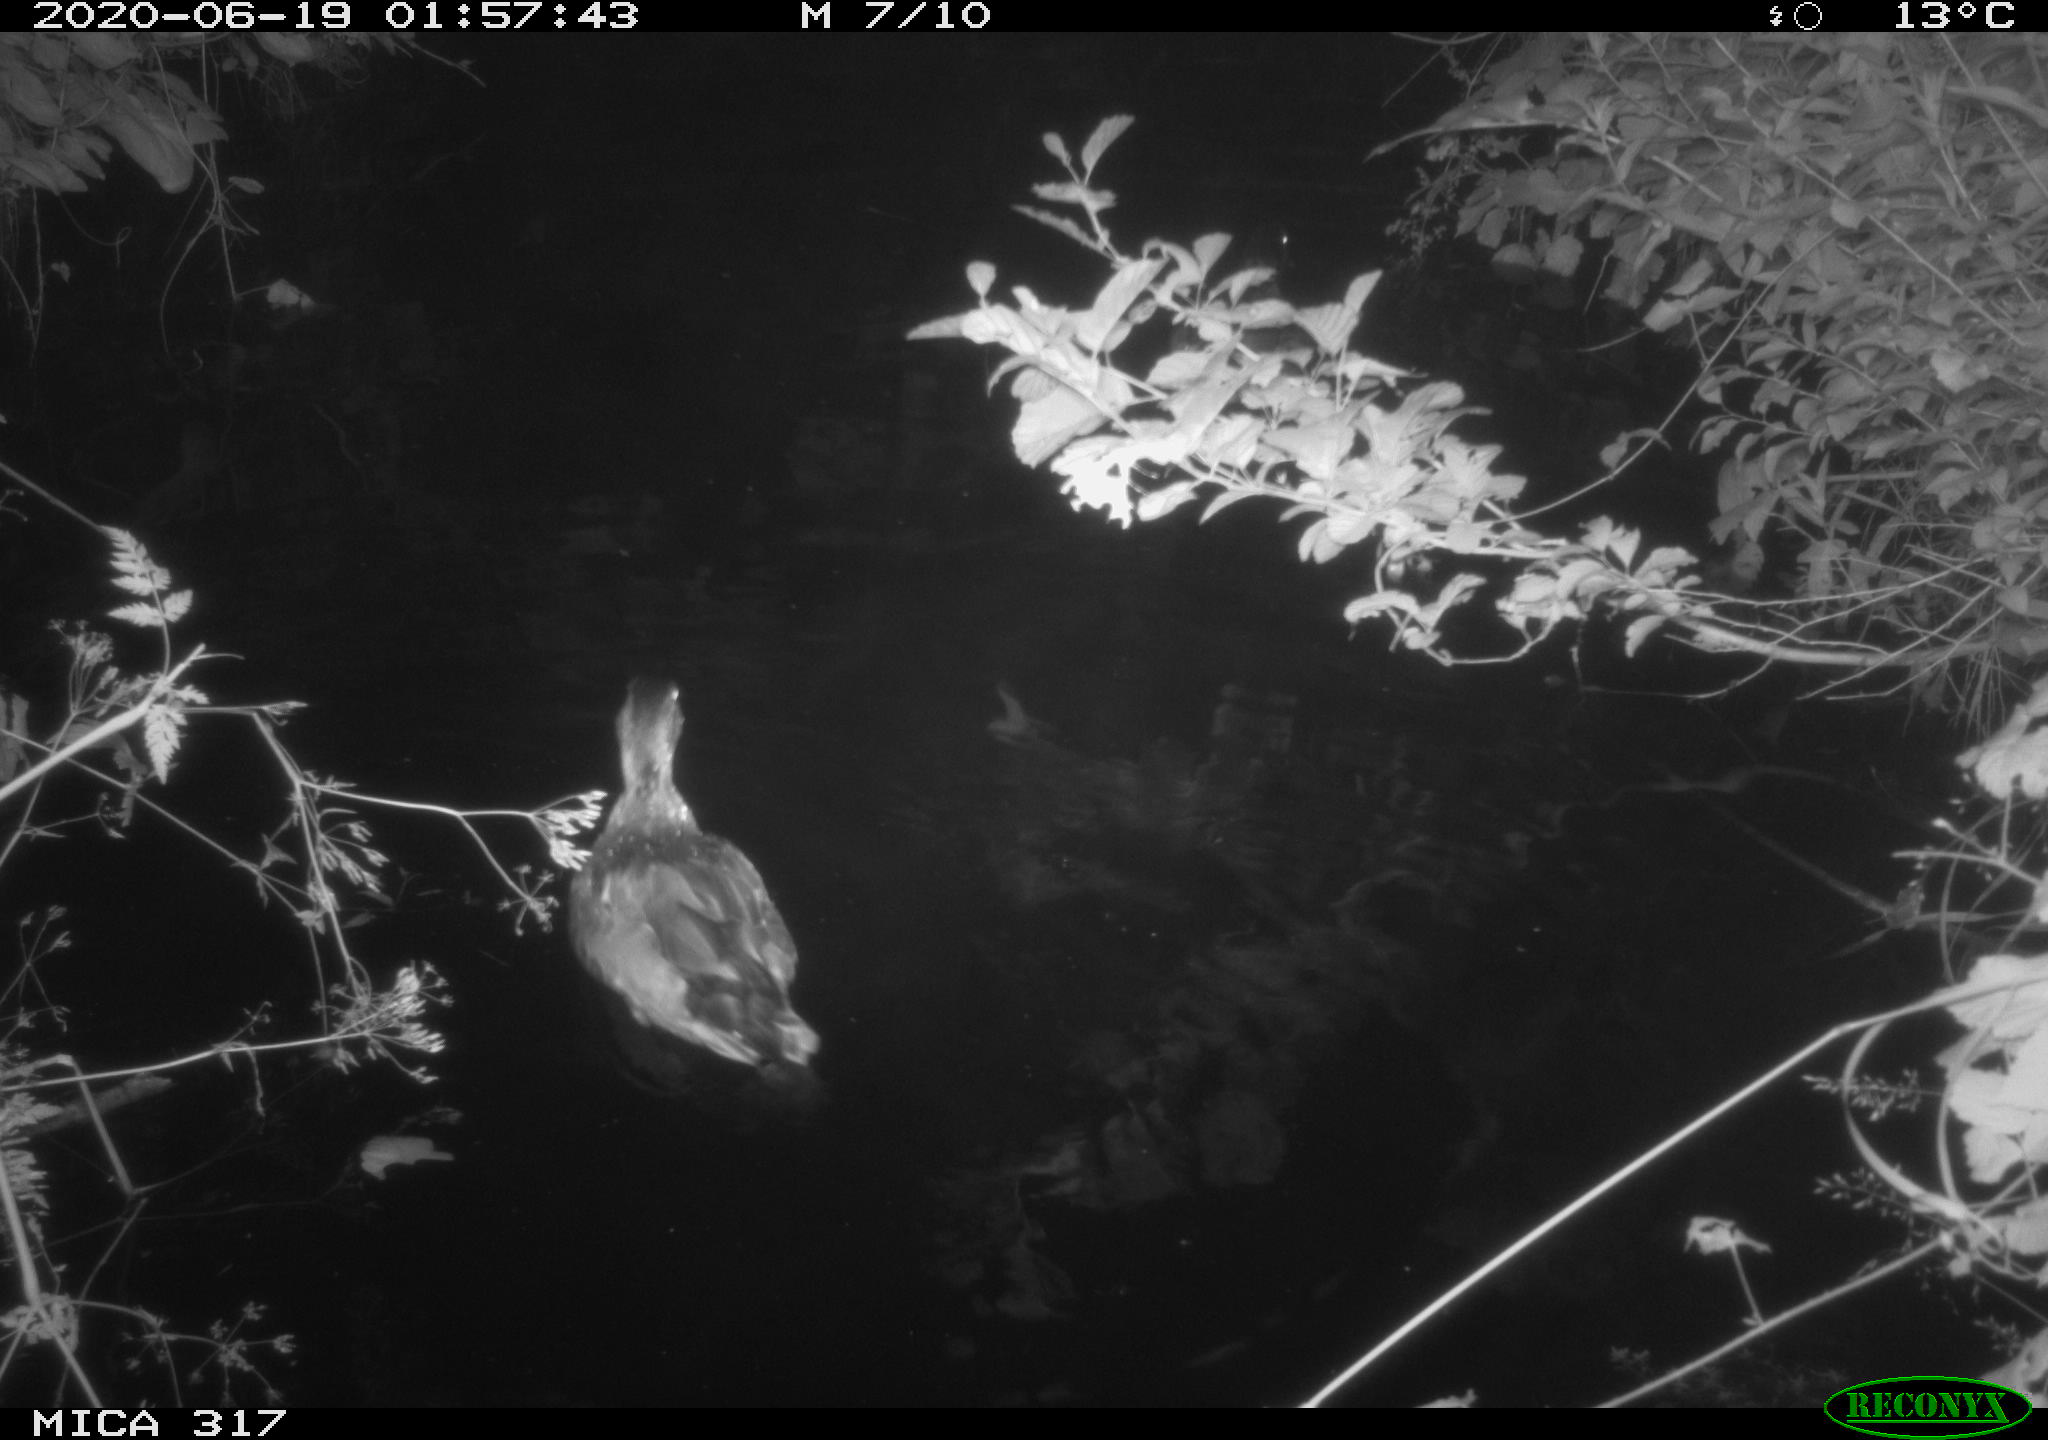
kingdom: Animalia
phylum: Chordata
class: Aves
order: Anseriformes
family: Anatidae
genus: Anas
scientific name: Anas platyrhynchos
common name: Mallard
